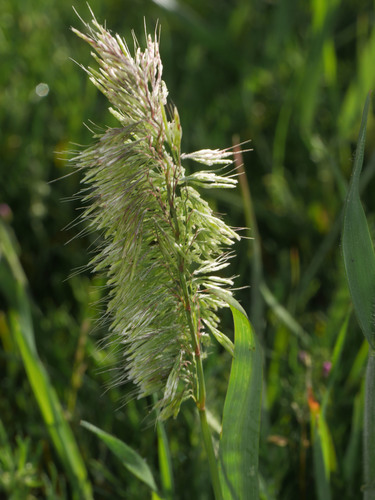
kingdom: Plantae
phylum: Tracheophyta
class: Liliopsida
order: Poales
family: Poaceae
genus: Lamarckia
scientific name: Lamarckia aurea
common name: Golden dog's-tail
